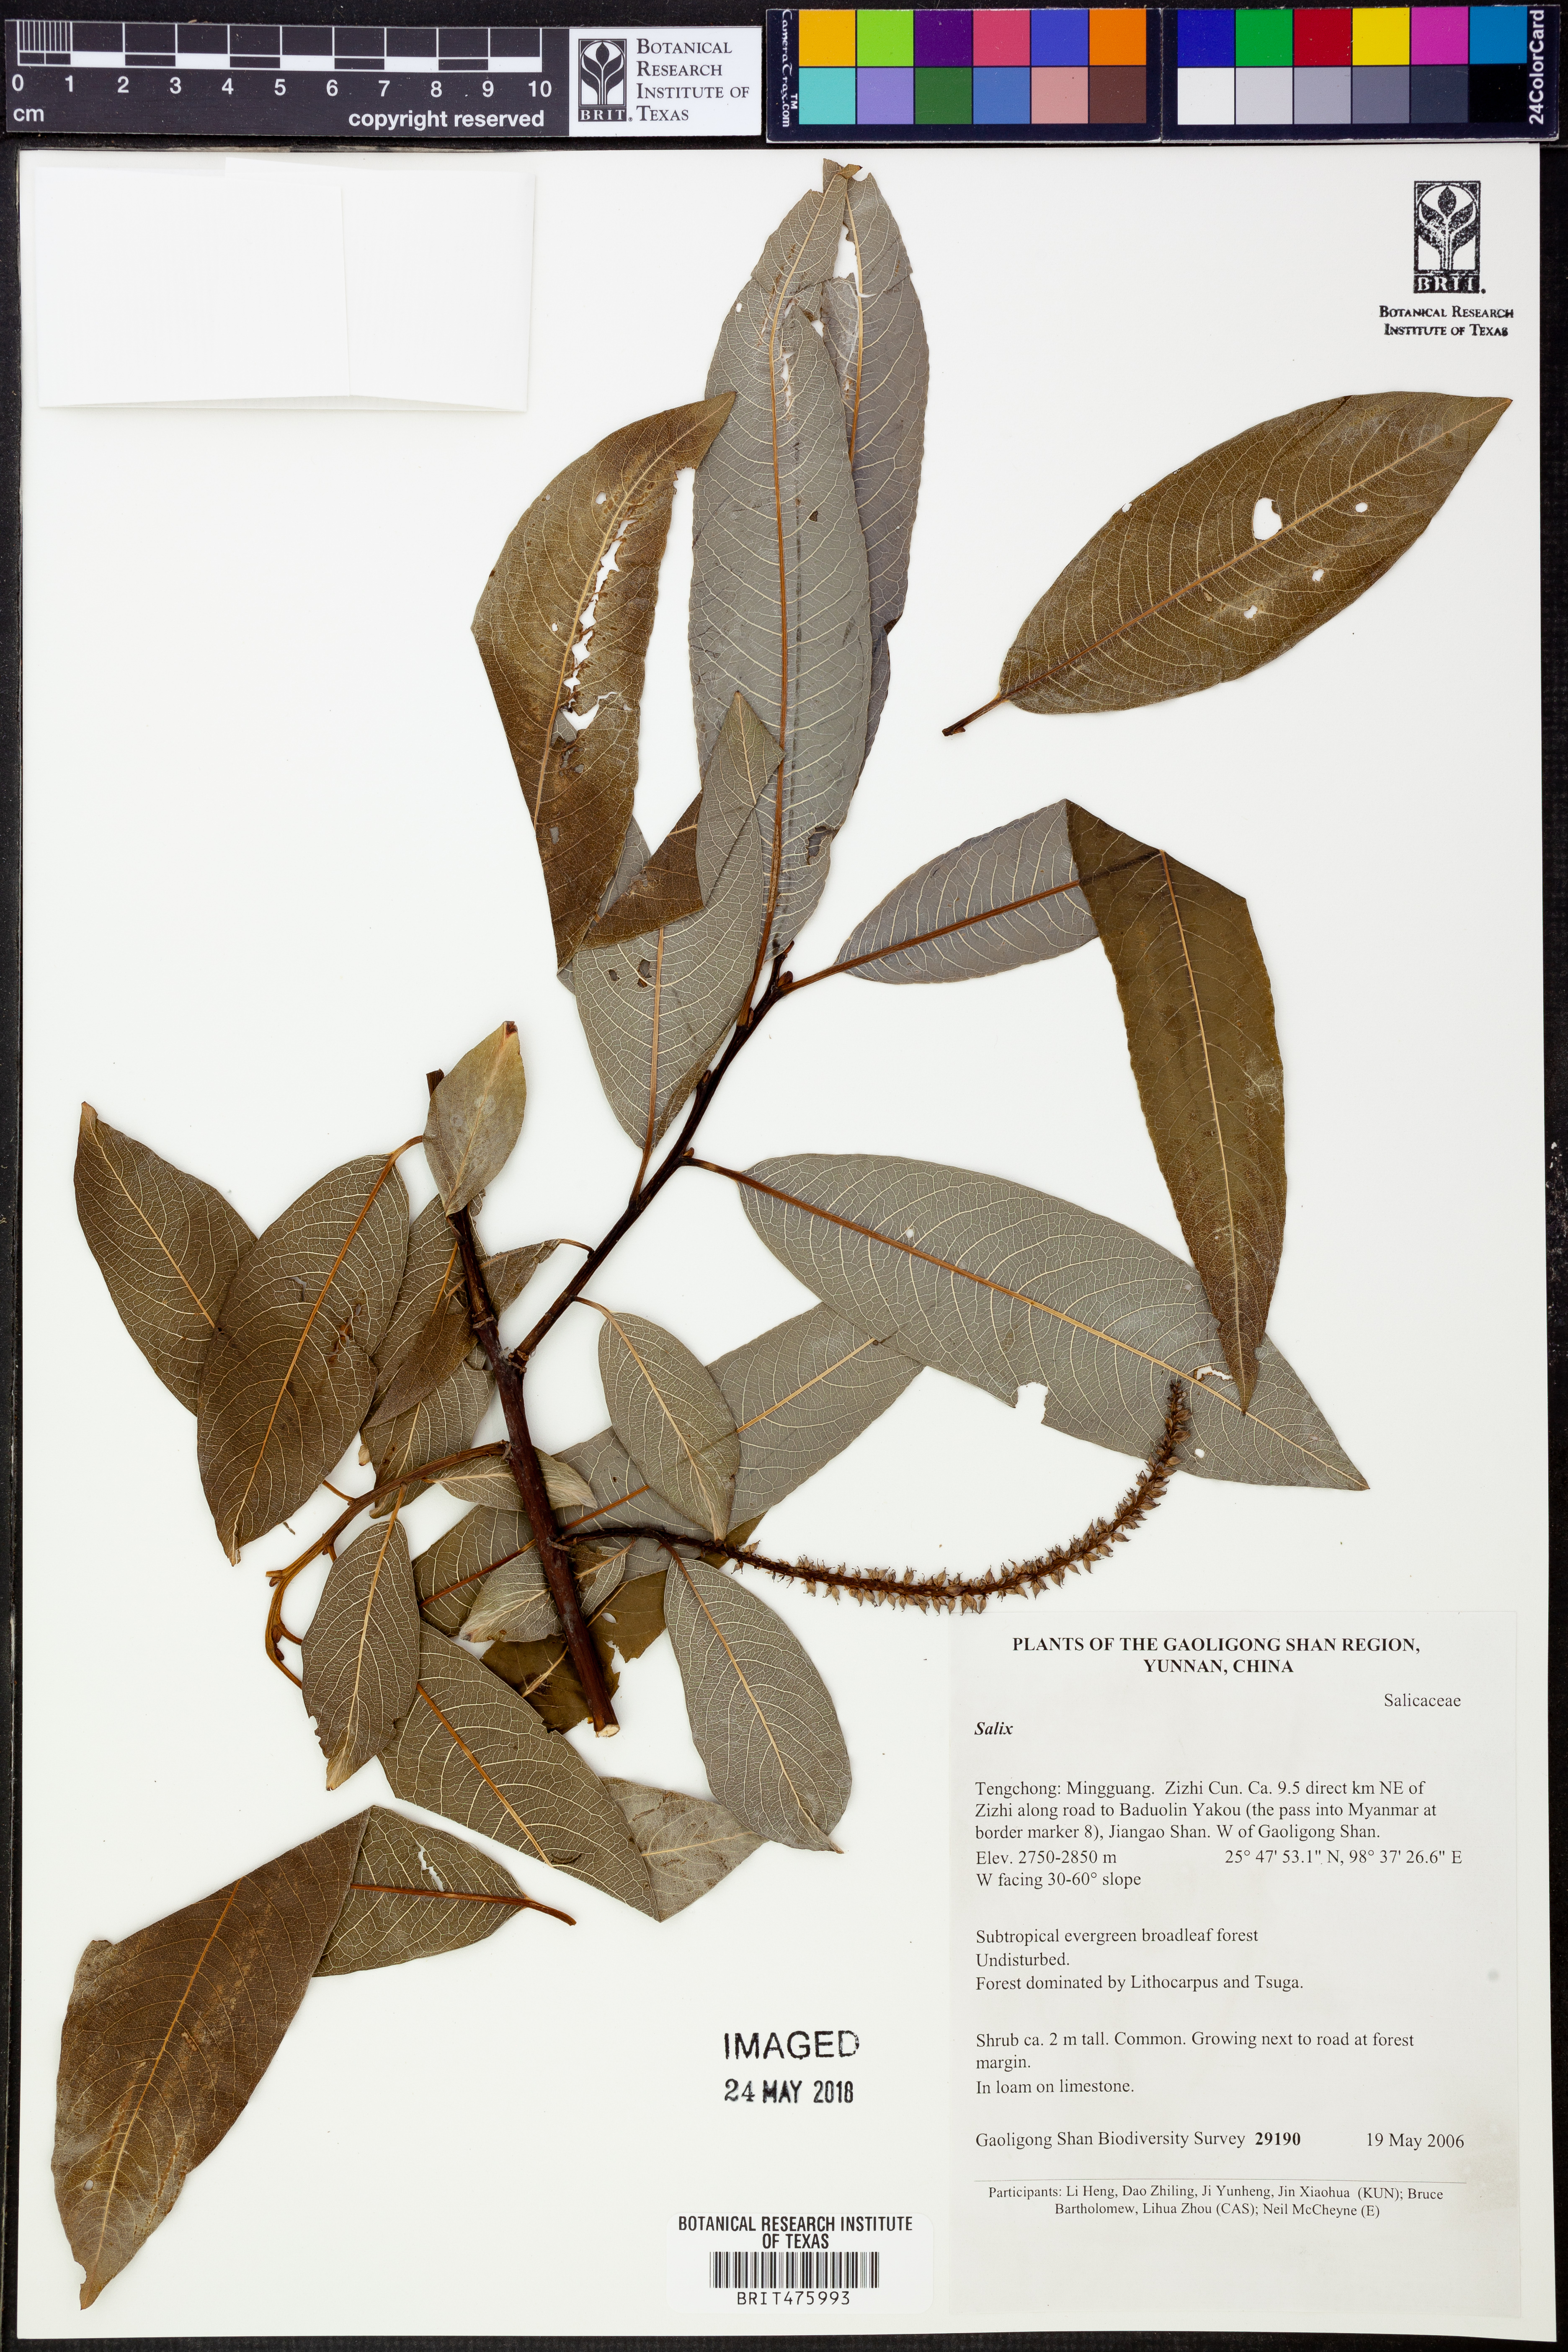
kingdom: Plantae
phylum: Tracheophyta
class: Magnoliopsida
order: Malpighiales
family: Salicaceae
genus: Salix
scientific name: Salix
